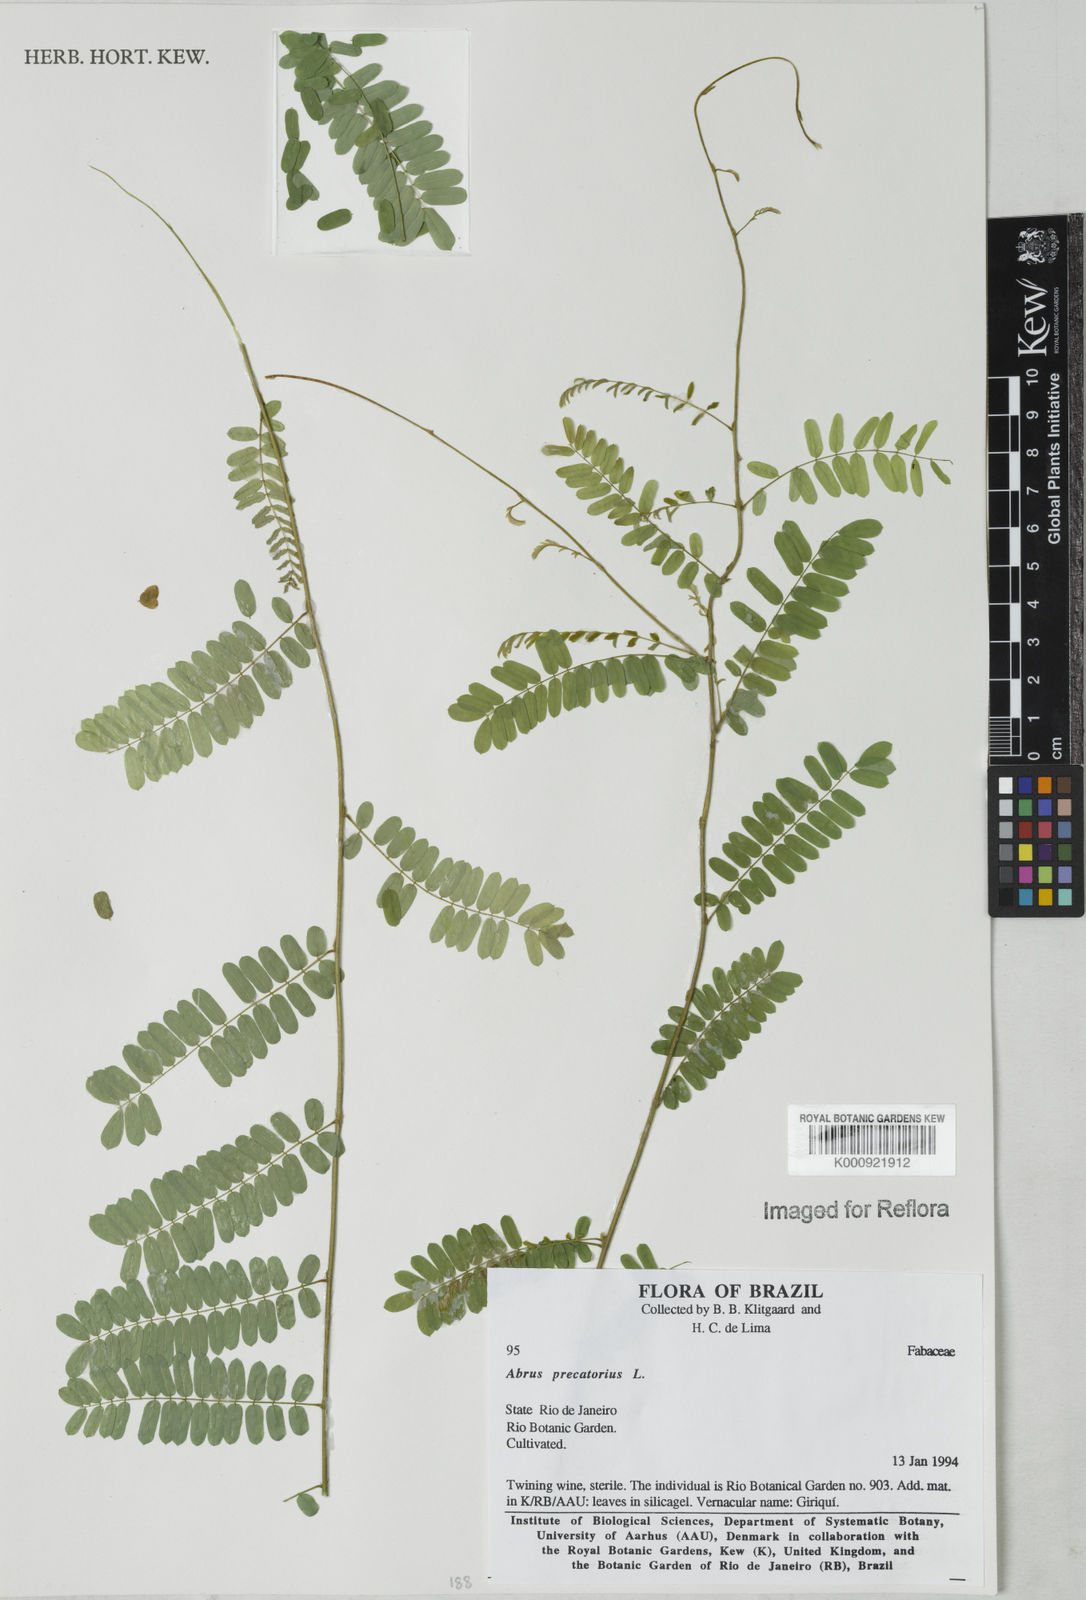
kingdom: Plantae
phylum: Tracheophyta
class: Magnoliopsida
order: Fabales
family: Fabaceae
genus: Abrus
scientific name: Abrus precatorius
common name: Rosarypea
